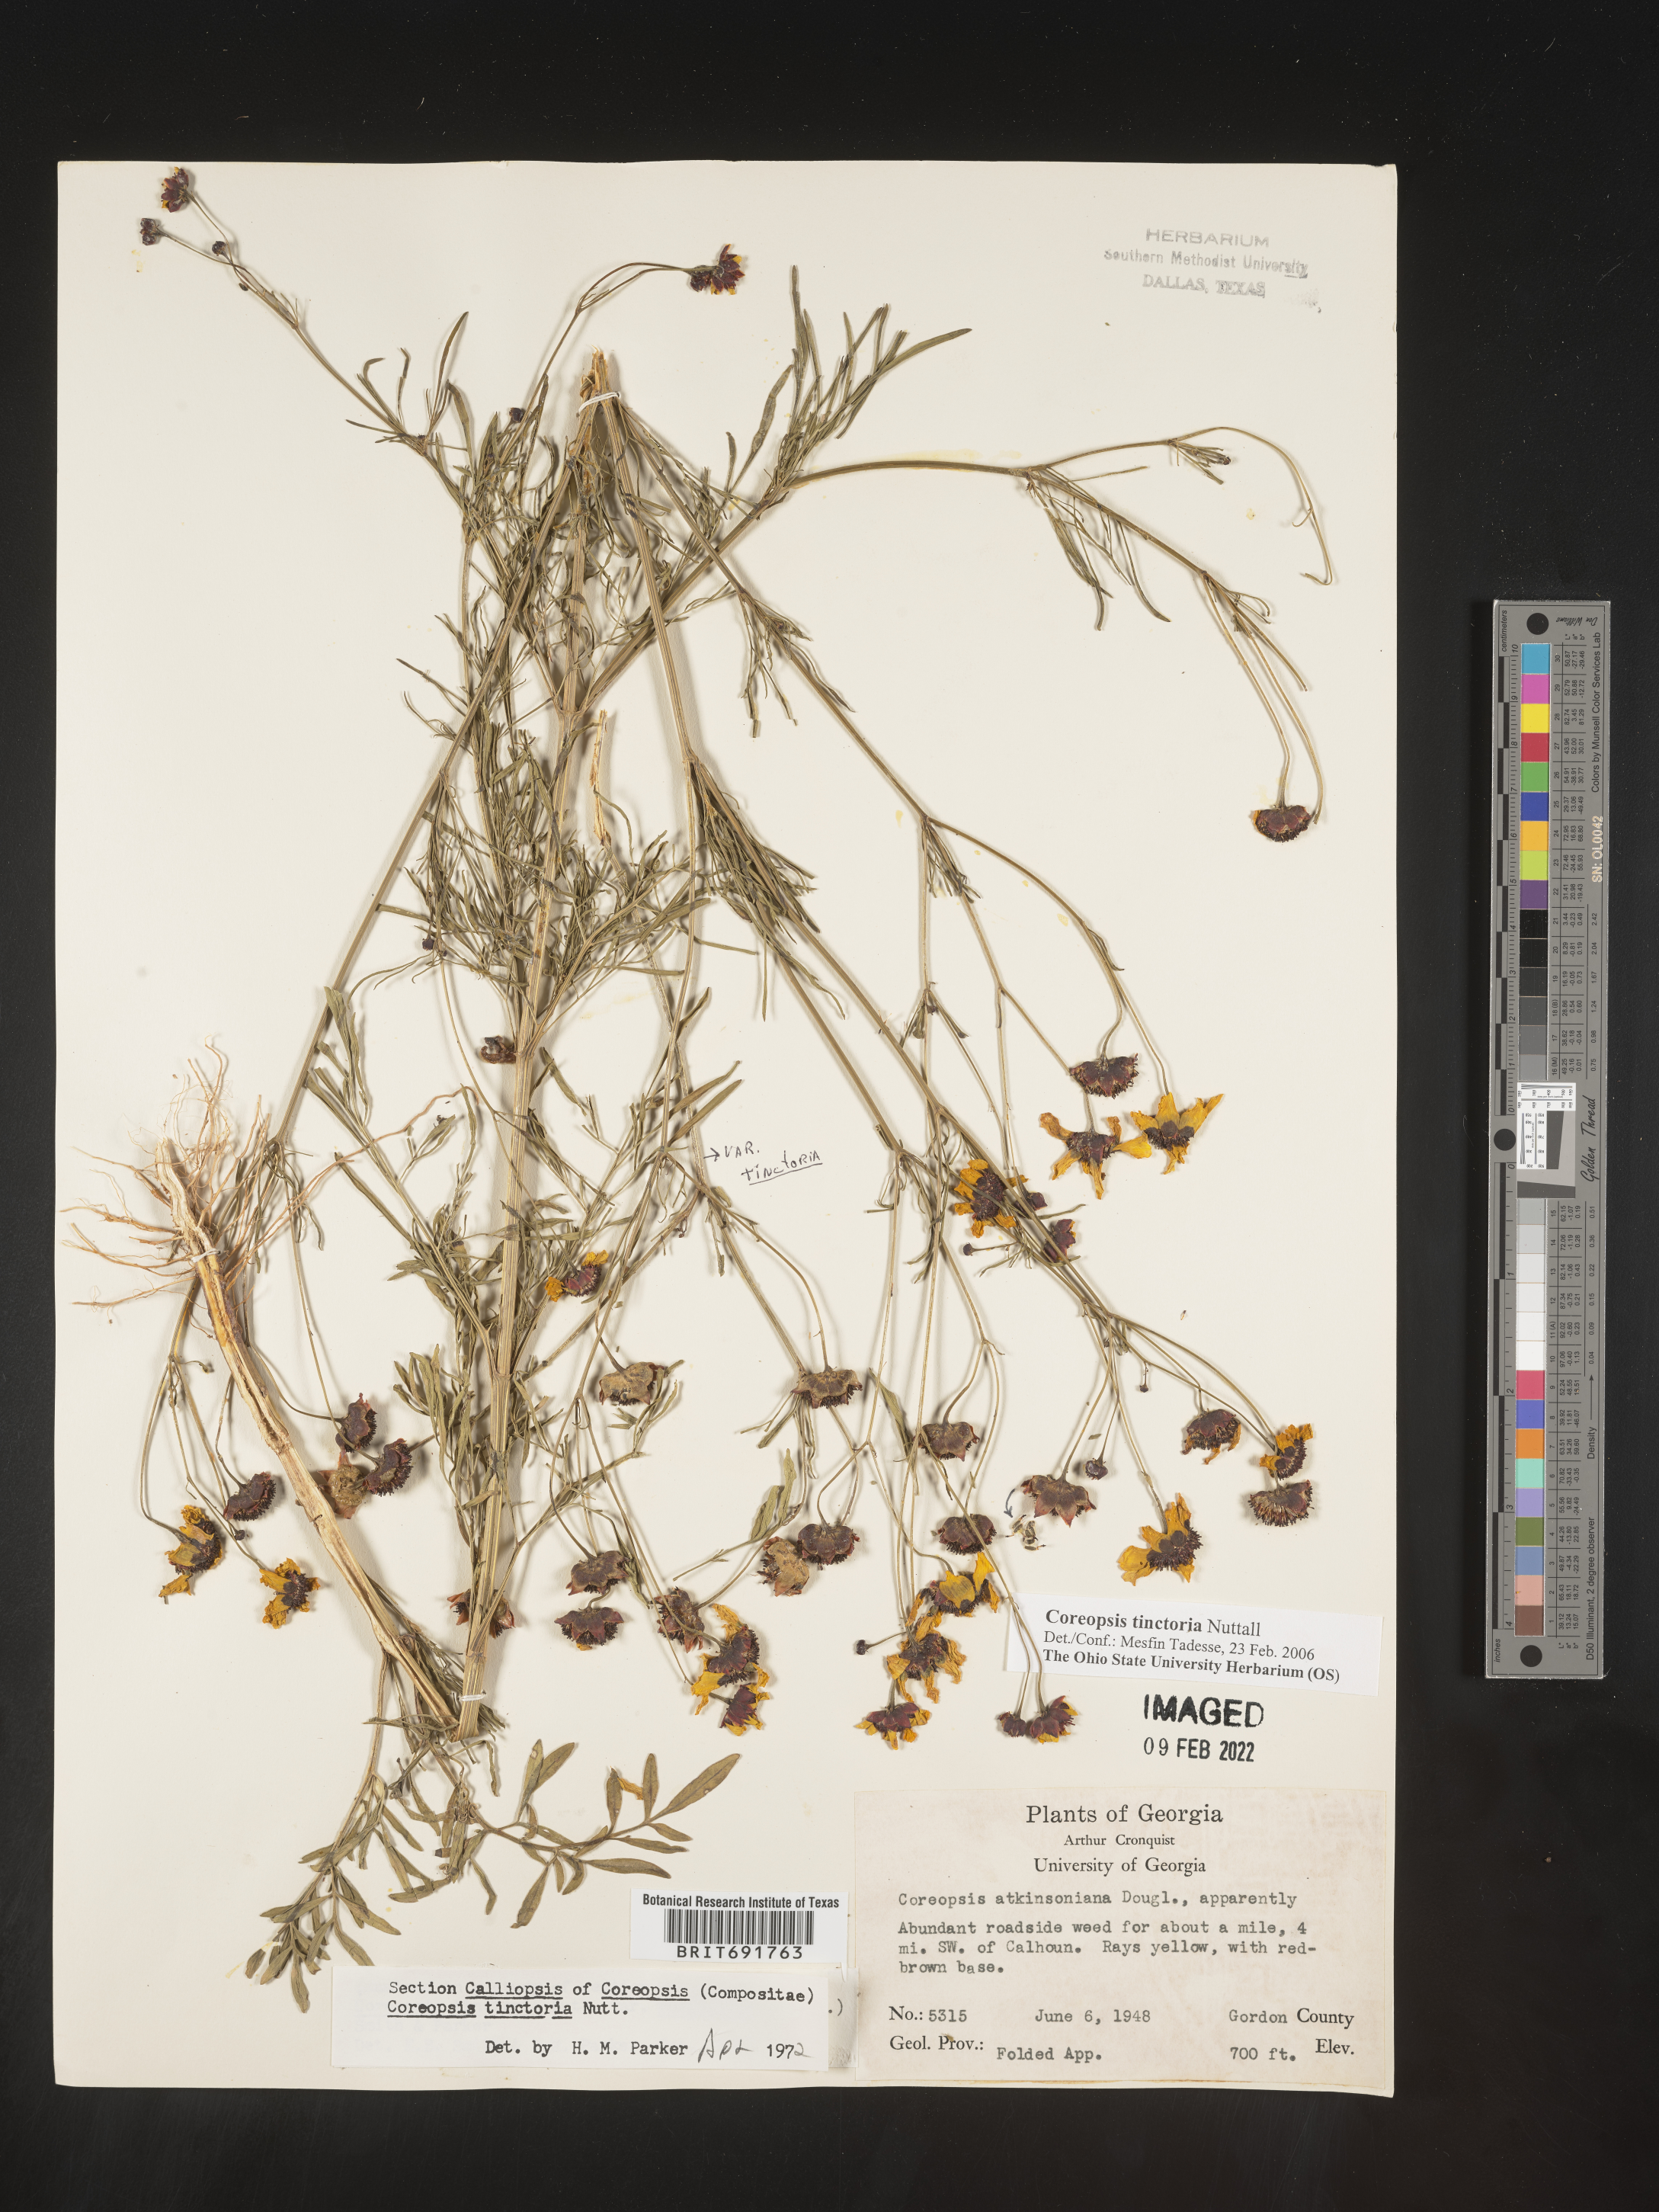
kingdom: Plantae
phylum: Tracheophyta
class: Magnoliopsida
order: Asterales
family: Asteraceae
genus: Coreopsis
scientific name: Coreopsis tinctoria
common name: Garden tickseed
